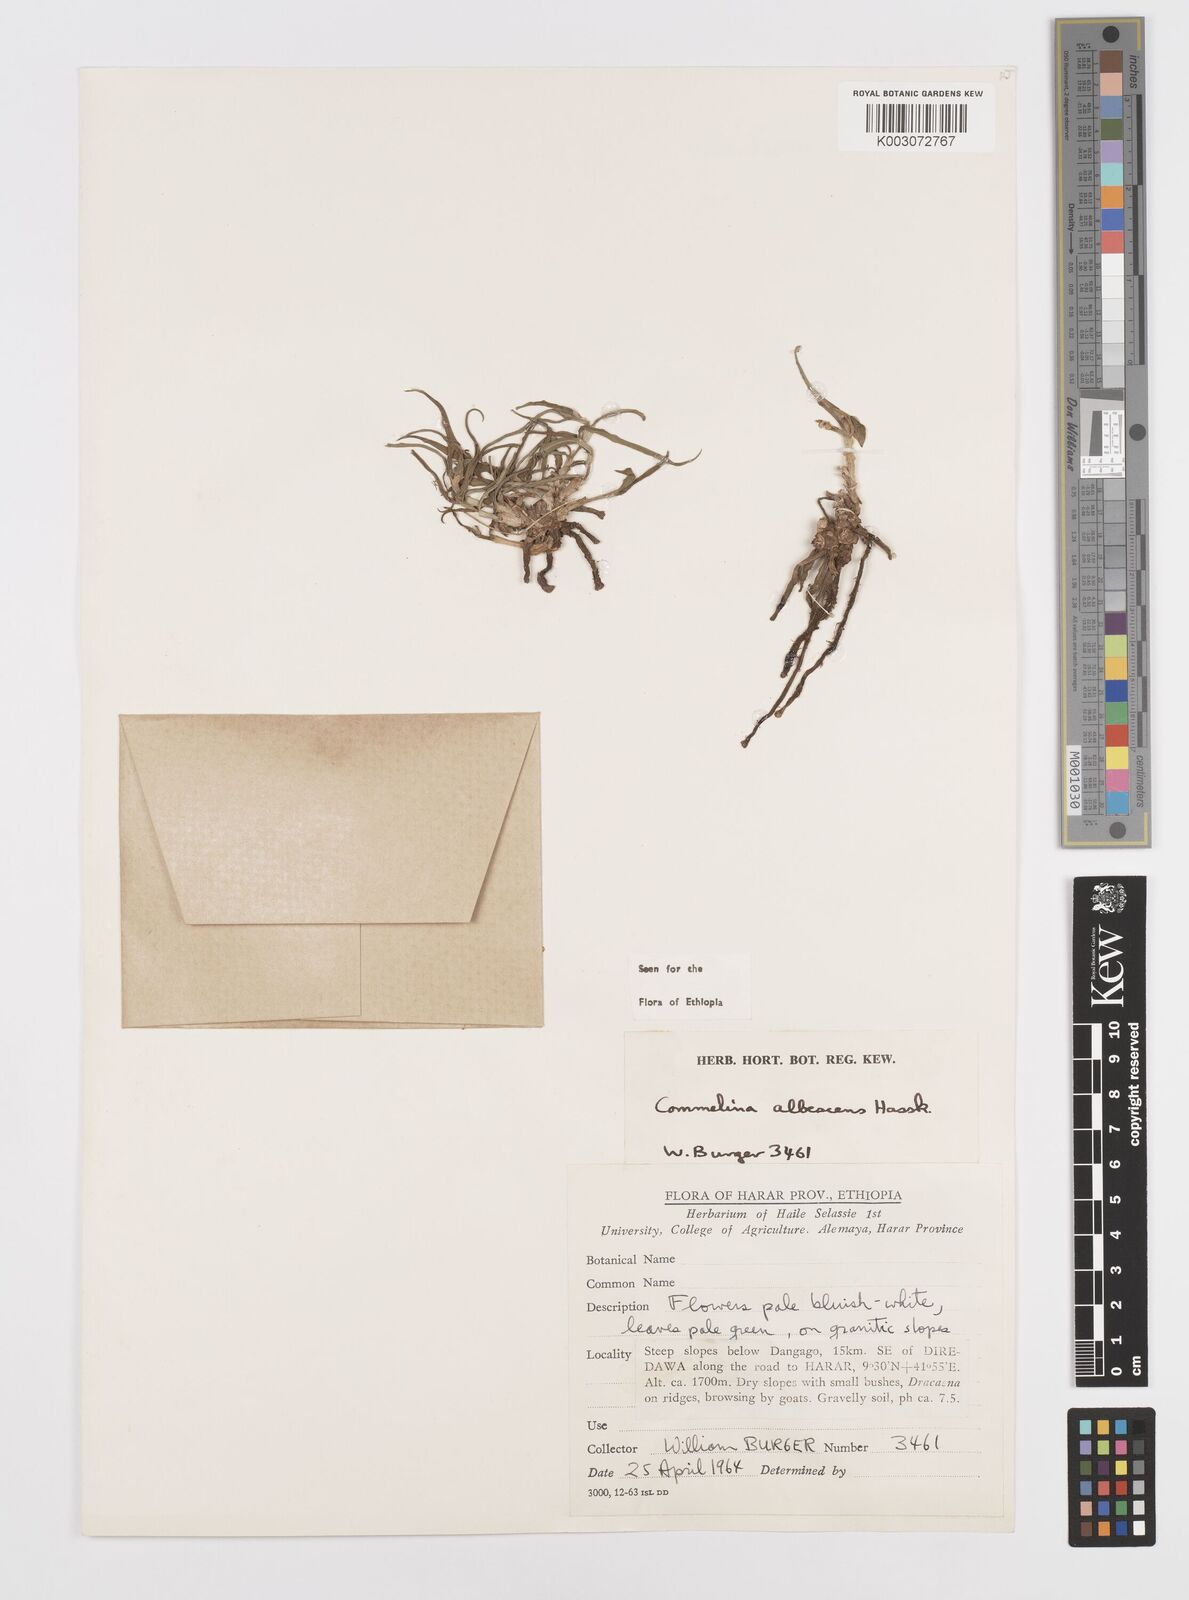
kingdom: Plantae
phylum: Tracheophyta
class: Liliopsida
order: Commelinales
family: Commelinaceae
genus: Commelina
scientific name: Commelina albescens
